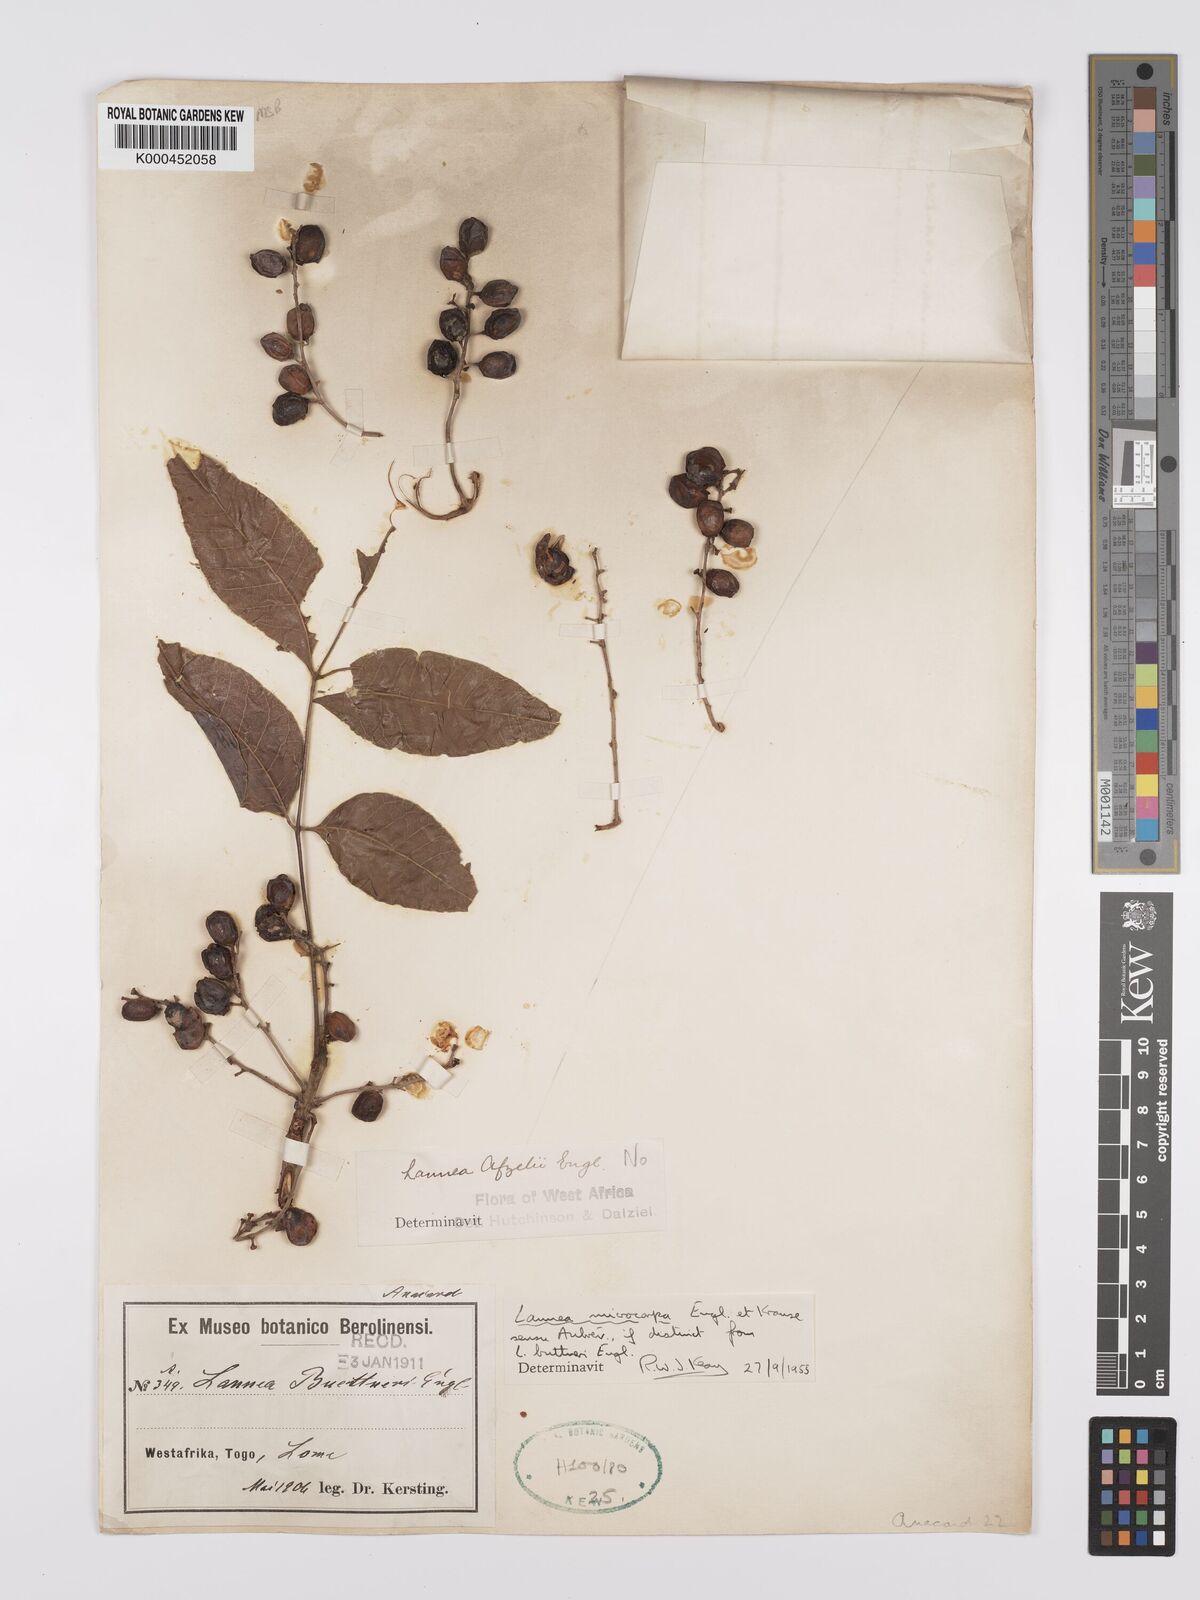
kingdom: Plantae
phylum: Tracheophyta
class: Magnoliopsida
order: Sapindales
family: Anacardiaceae
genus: Lannea
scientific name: Lannea microcarpa
